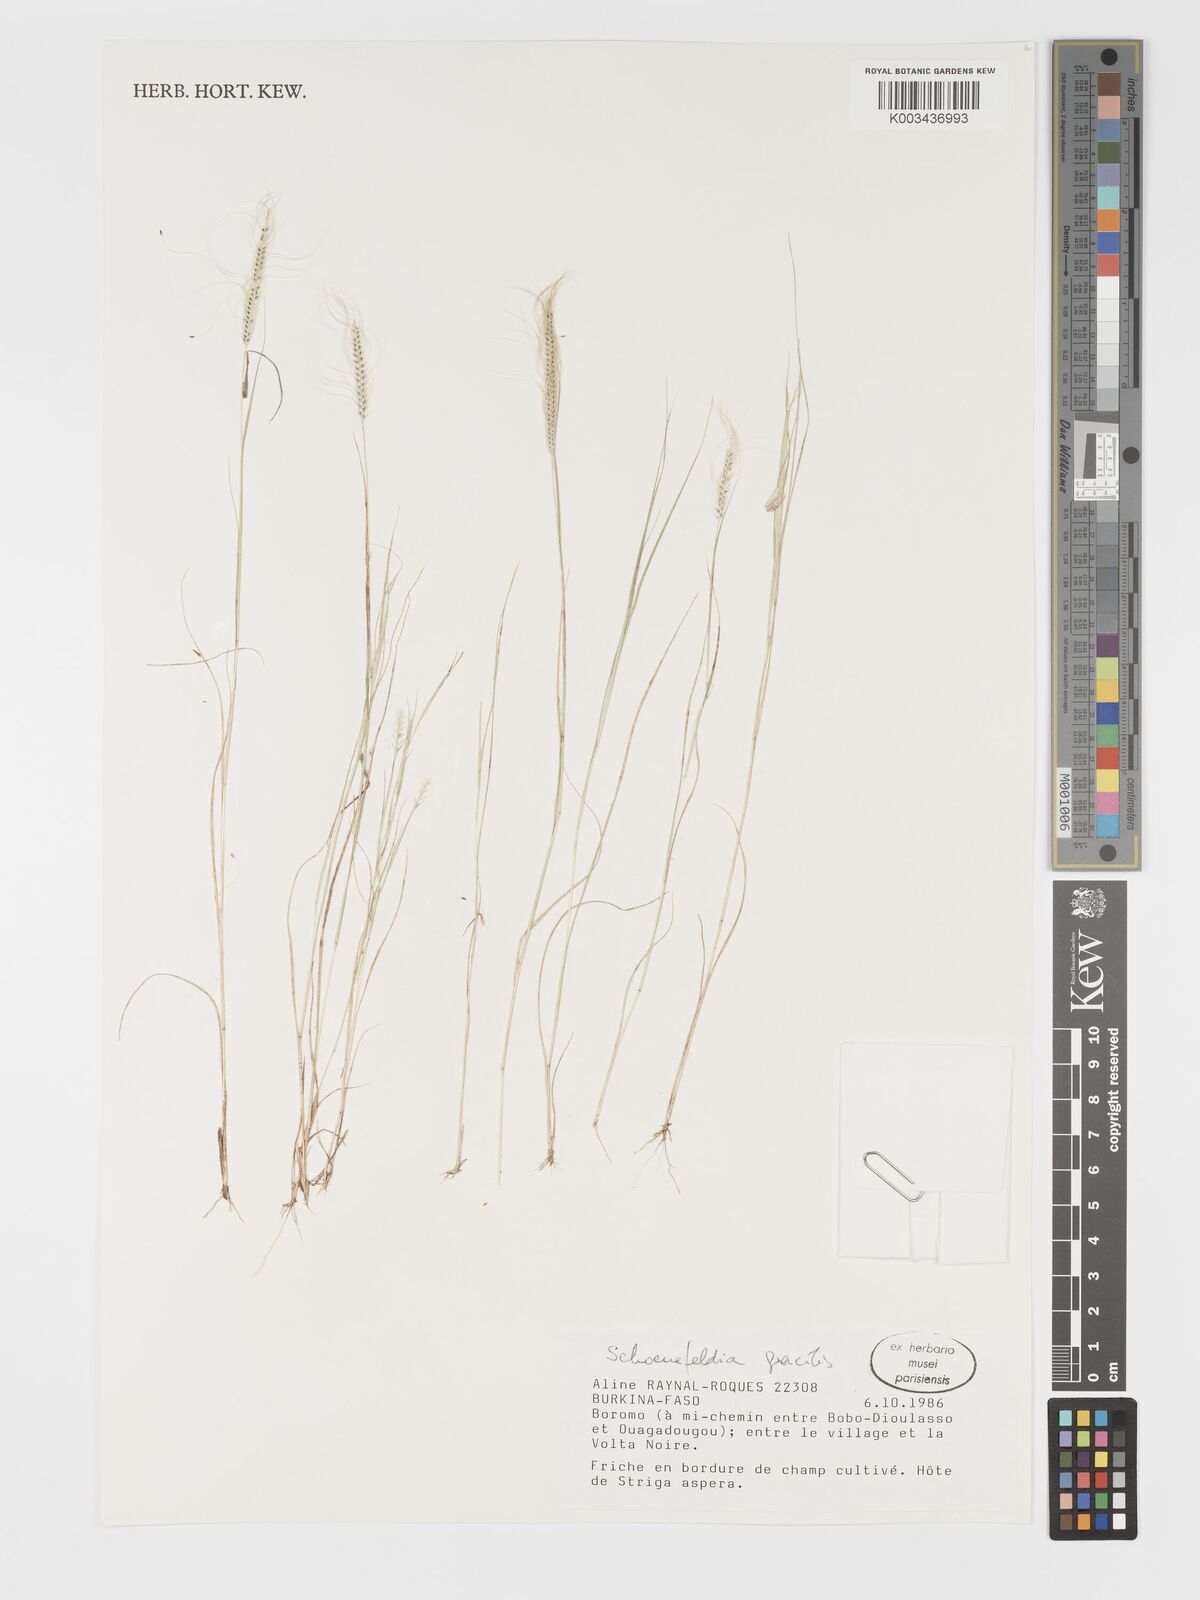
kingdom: Plantae
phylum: Tracheophyta
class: Liliopsida
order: Poales
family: Poaceae
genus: Schoenefeldia
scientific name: Schoenefeldia gracilis
